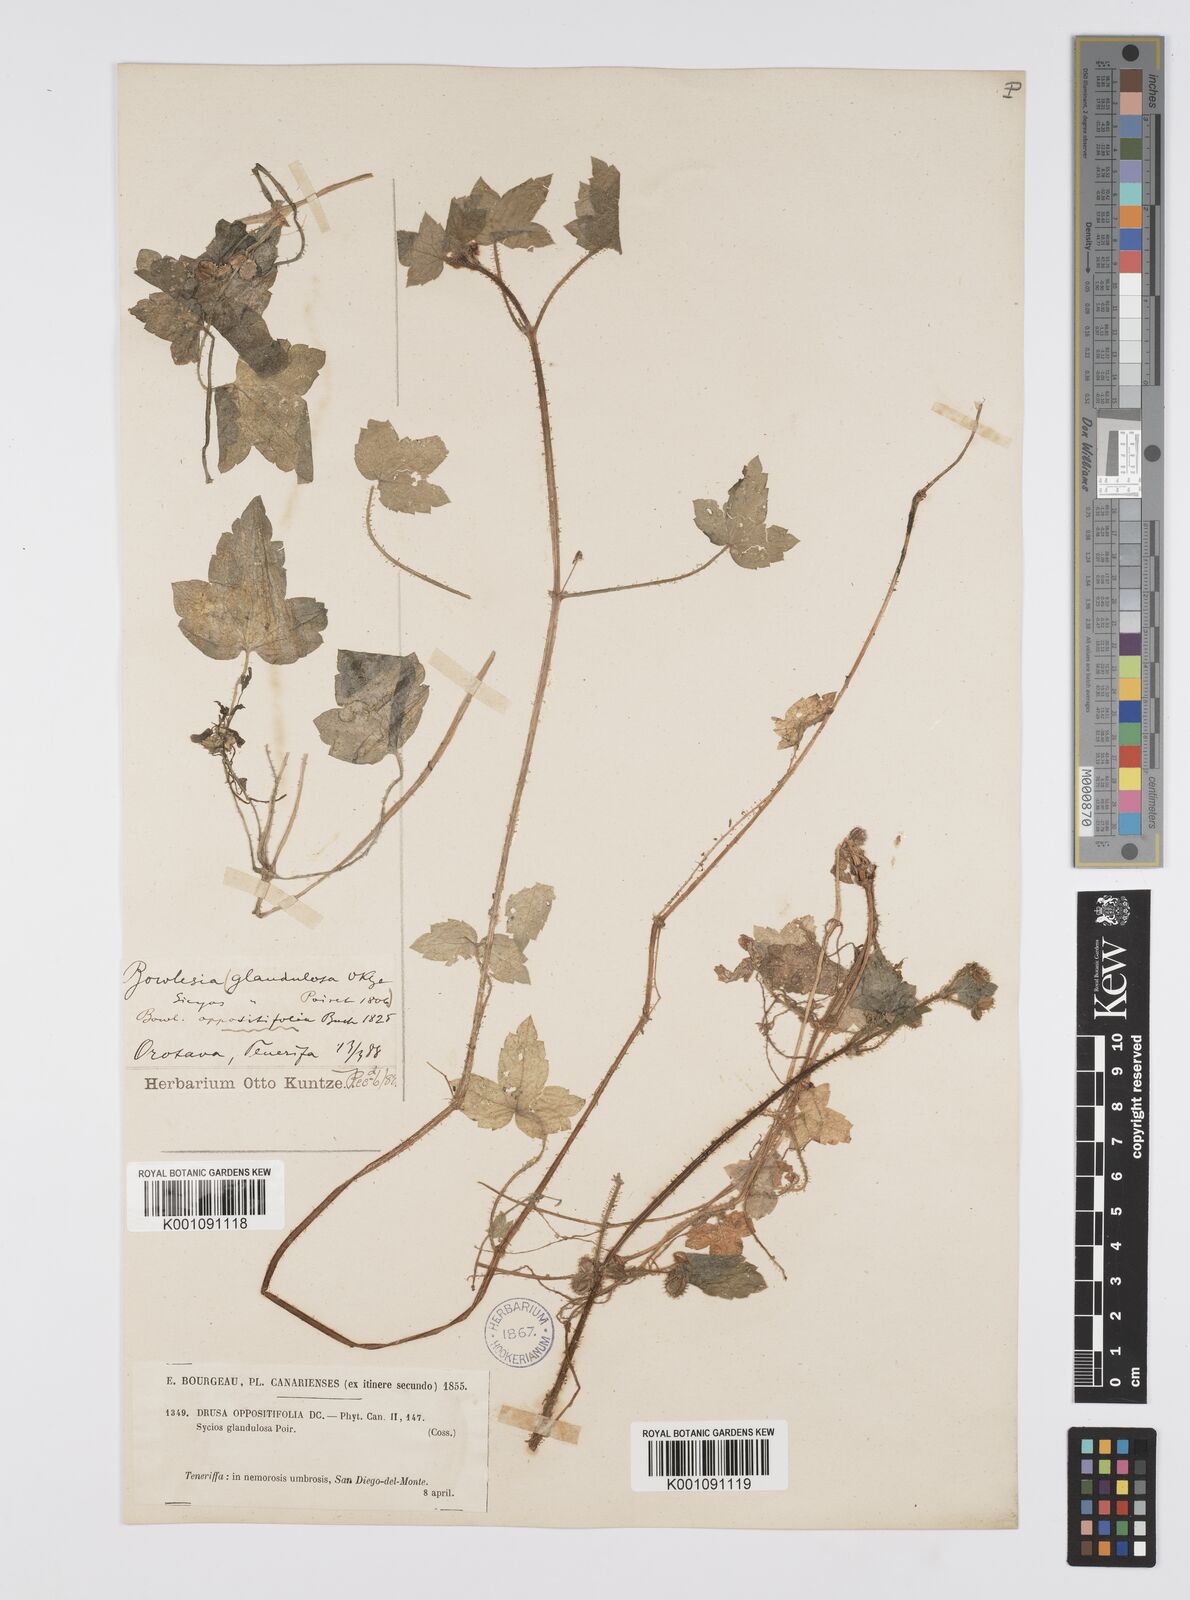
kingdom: Plantae
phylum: Tracheophyta
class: Magnoliopsida
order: Apiales
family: Apiaceae
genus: Drusa
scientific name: Drusa glandulosa
